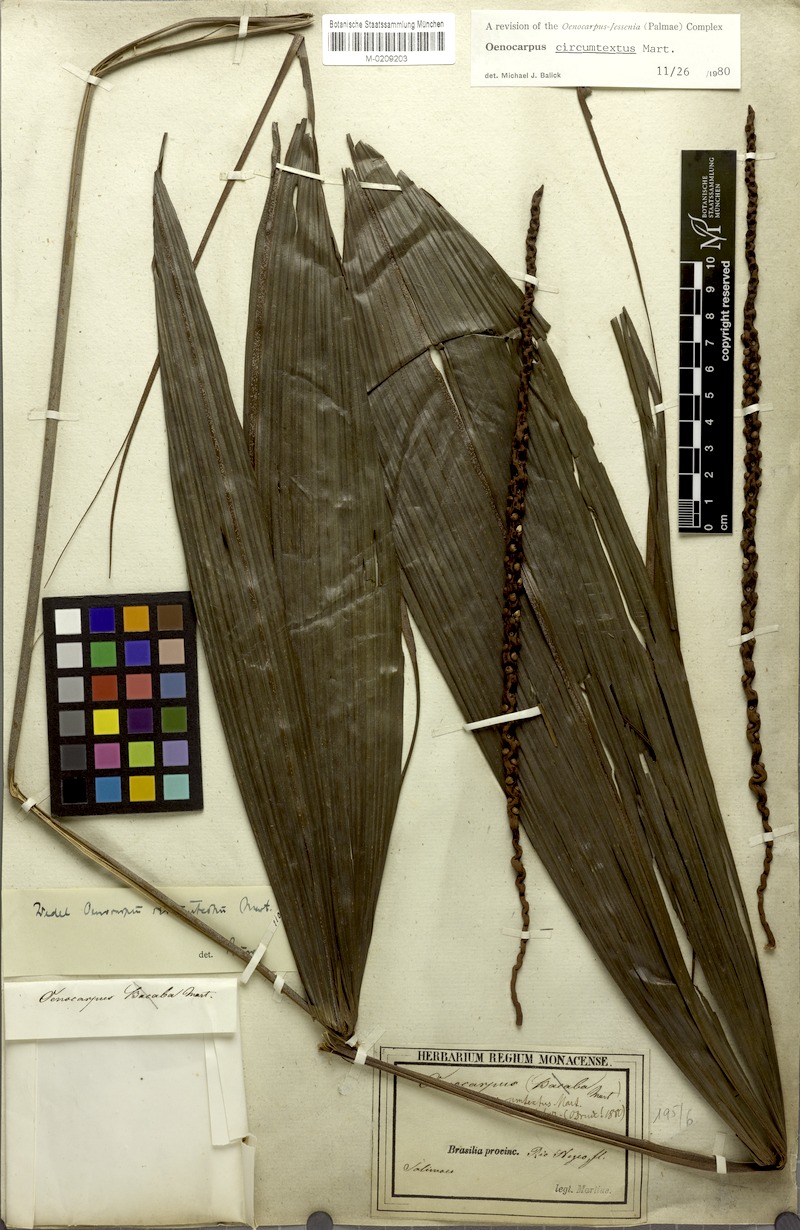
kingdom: Plantae
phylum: Tracheophyta
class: Liliopsida
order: Arecales
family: Arecaceae
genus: Oenocarpus
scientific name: Oenocarpus circumtextus
